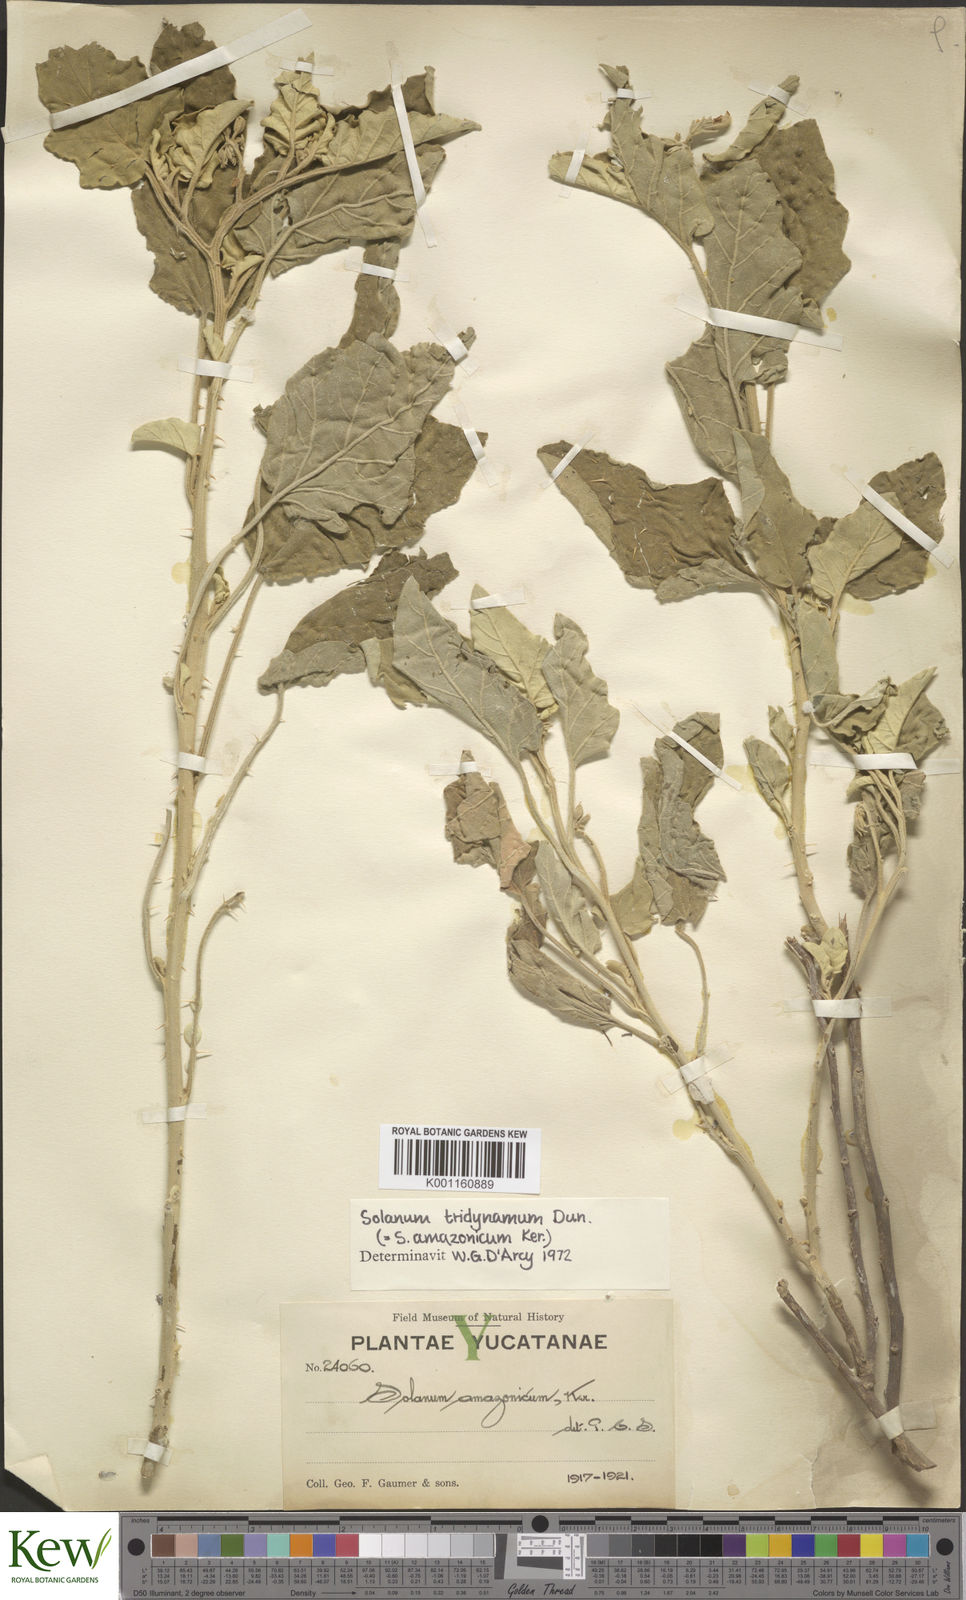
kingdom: Plantae
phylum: Tracheophyta
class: Magnoliopsida
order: Solanales
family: Solanaceae
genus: Solanum
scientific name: Solanum houstonii
